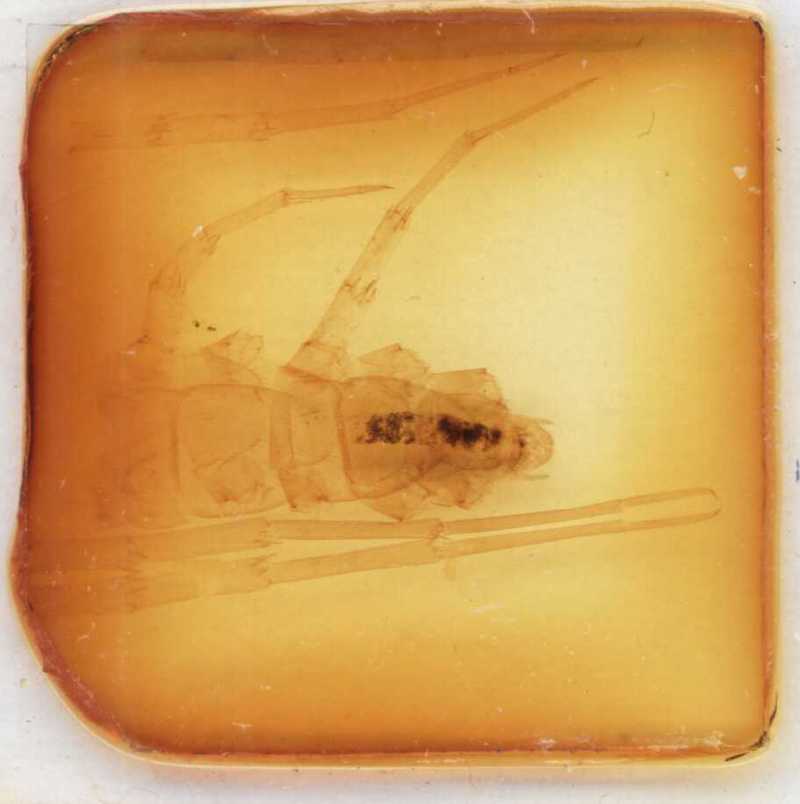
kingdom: Animalia
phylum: Arthropoda
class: Chilopoda
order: Lithobiomorpha
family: Lithobiidae
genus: Eupolybothrus
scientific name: Eupolybothrus grossipes
